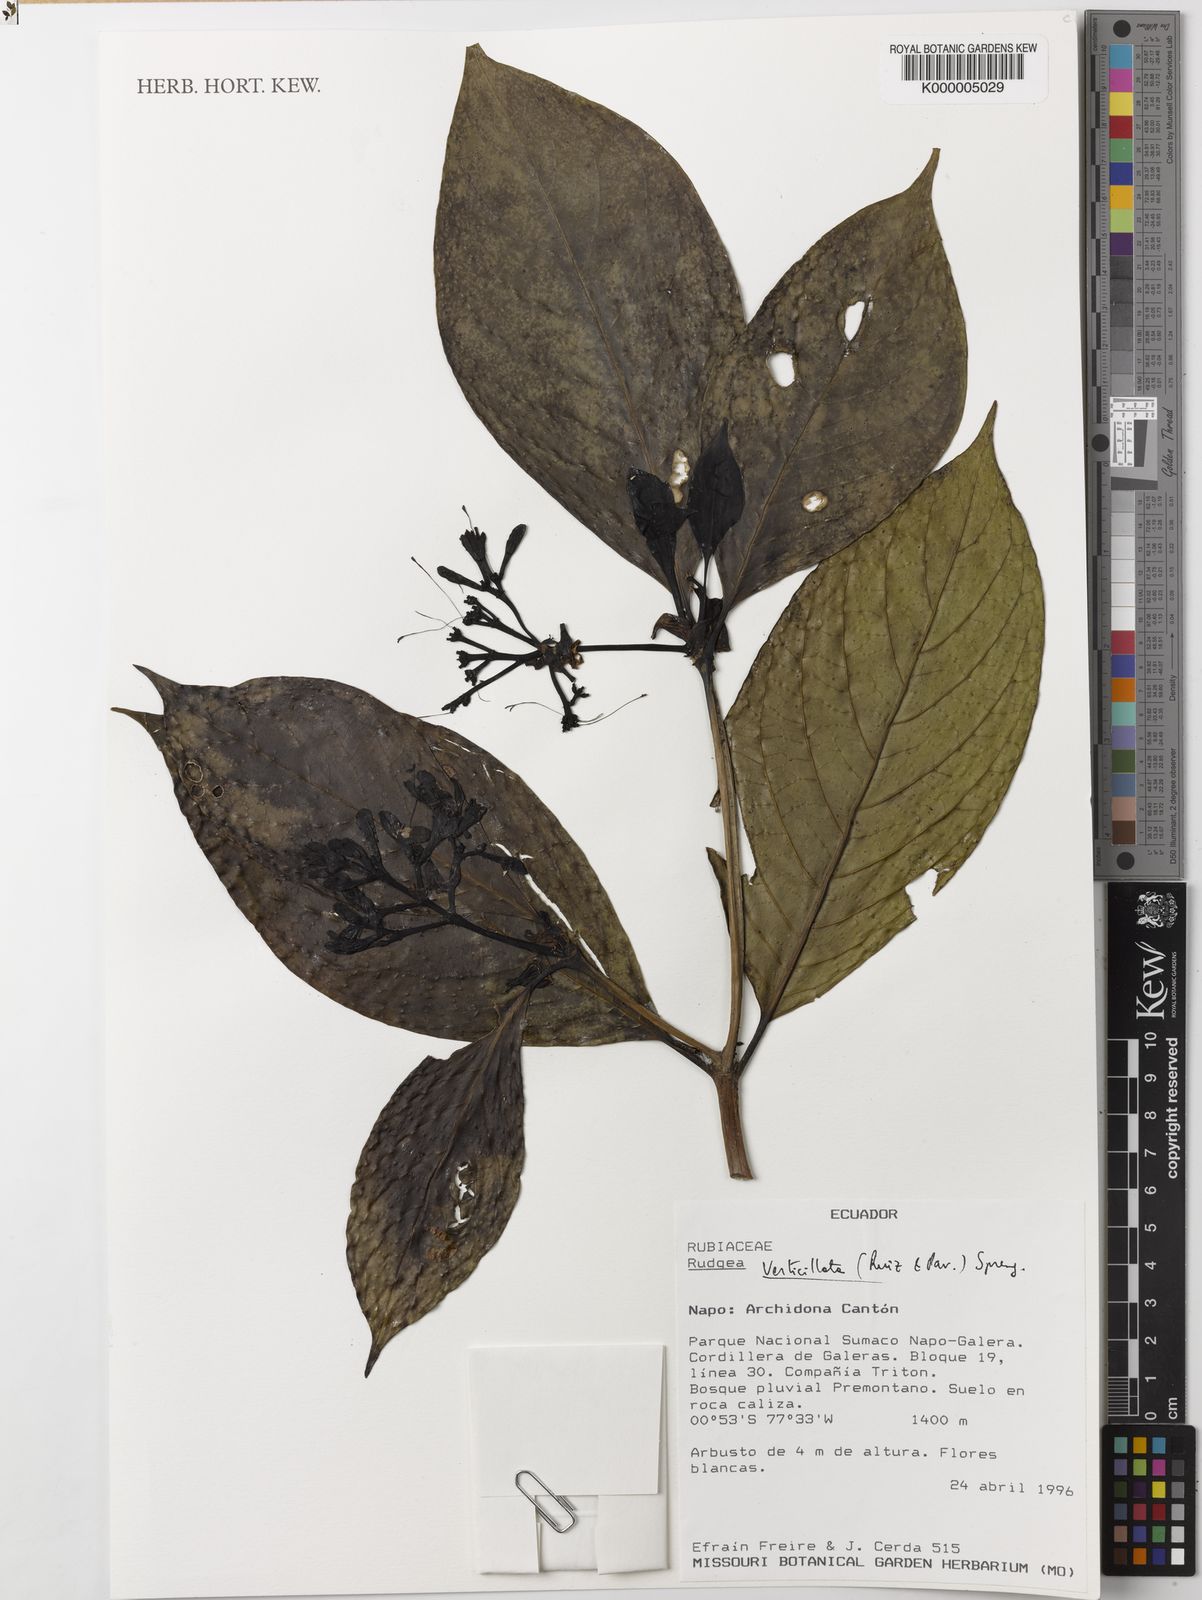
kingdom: Plantae
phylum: Tracheophyta
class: Magnoliopsida
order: Gentianales
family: Rubiaceae
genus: Rudgea
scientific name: Rudgea verticillata
